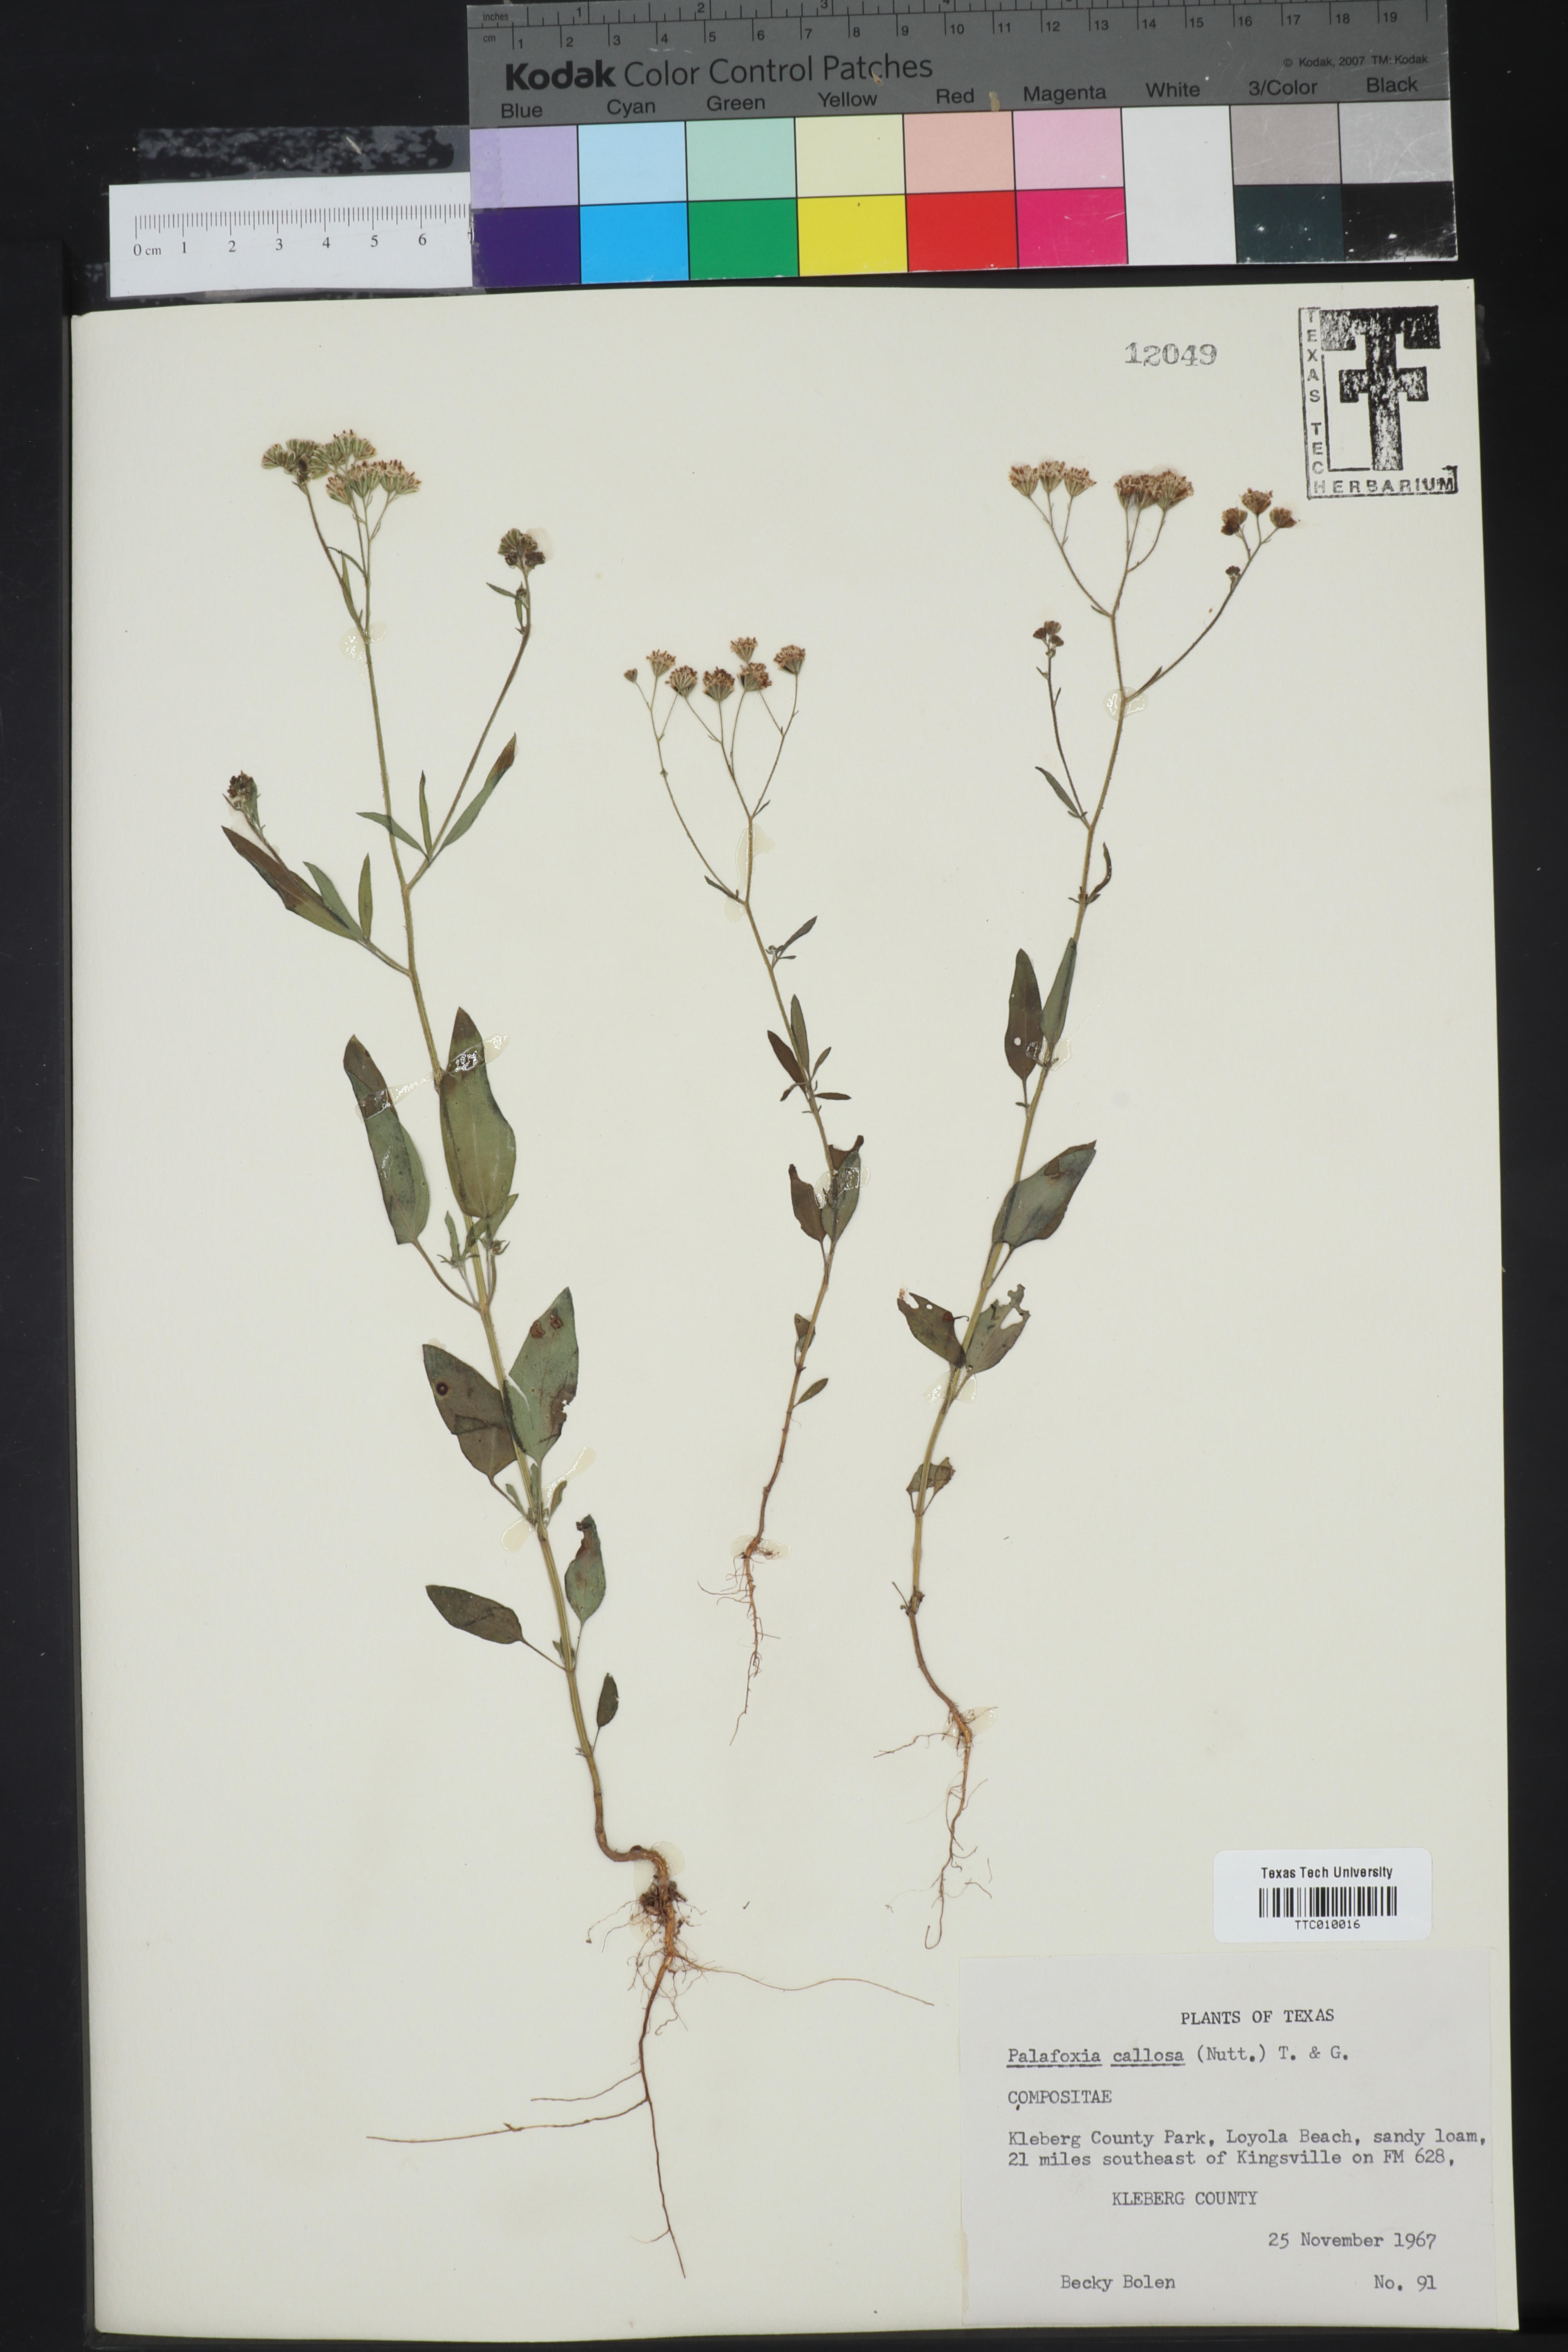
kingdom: Plantae
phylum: Tracheophyta
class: Magnoliopsida
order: Asterales
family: Asteraceae
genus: Palafoxia
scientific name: Palafoxia callosa
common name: Small palafox
